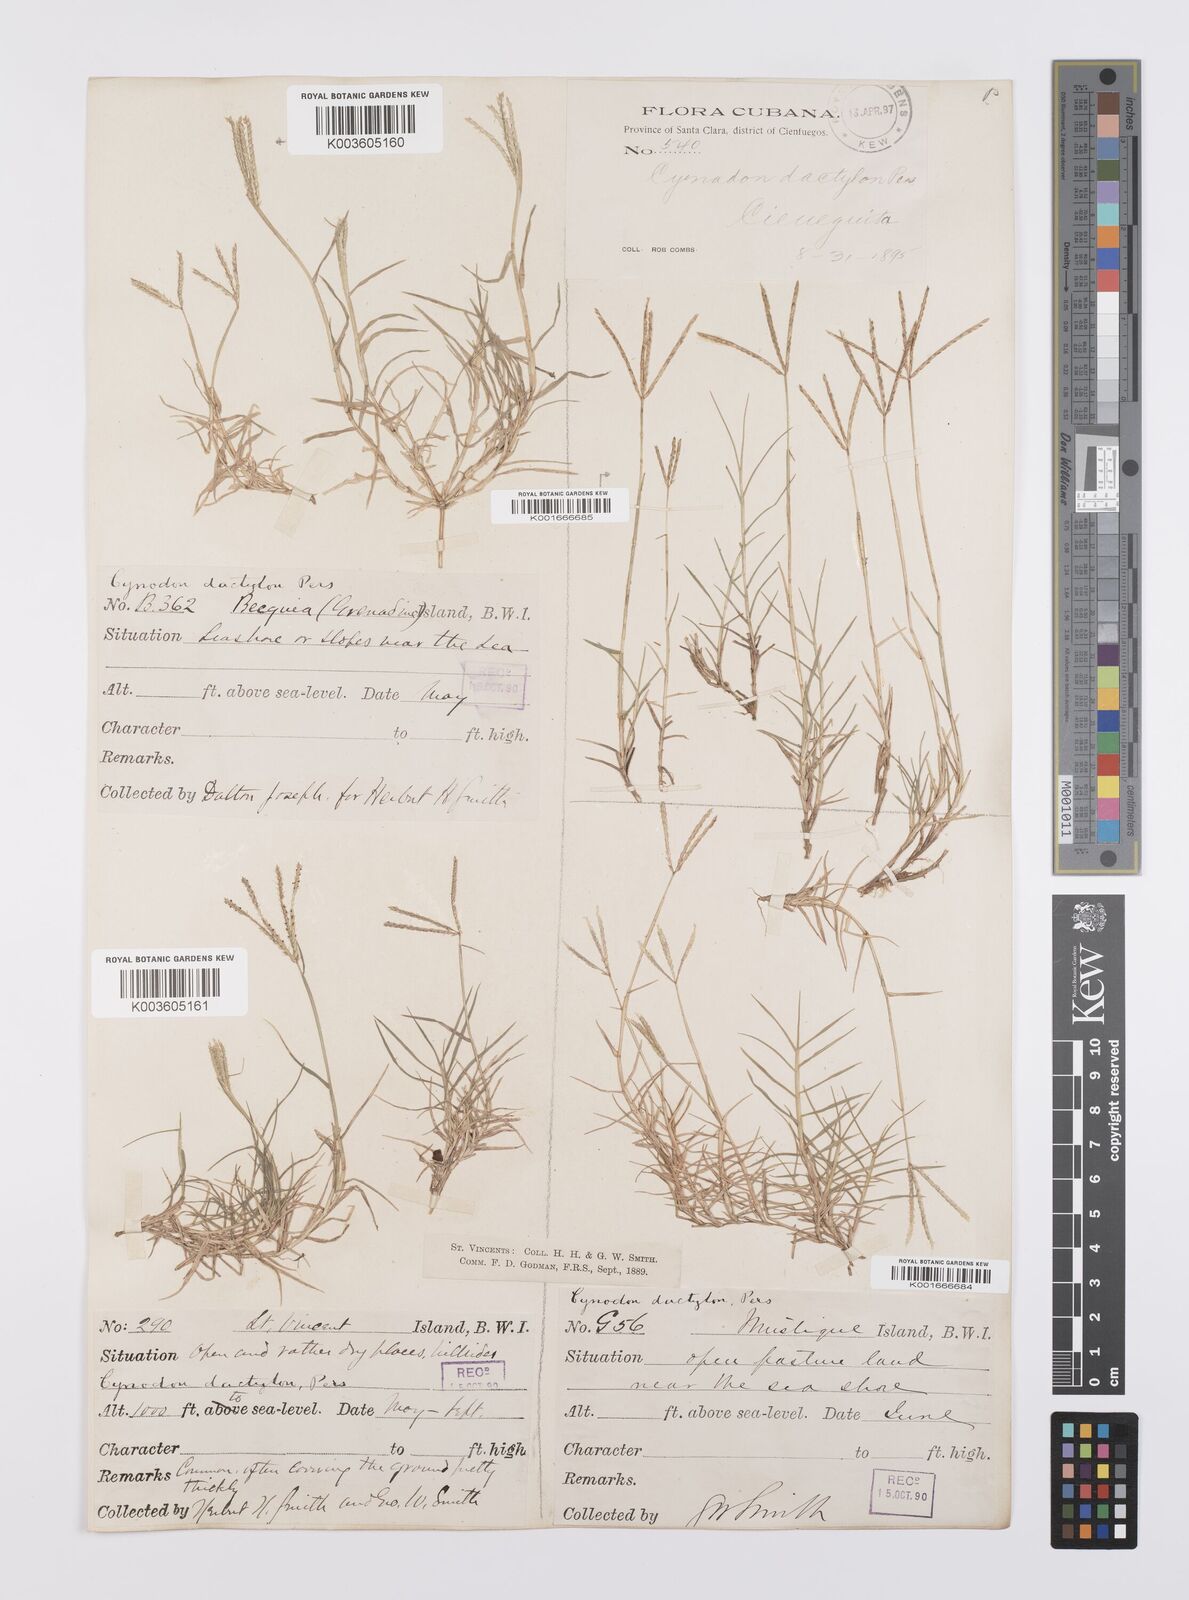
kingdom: Plantae
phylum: Tracheophyta
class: Liliopsida
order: Poales
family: Poaceae
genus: Cynodon
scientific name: Cynodon dactylon
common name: Bermuda grass
